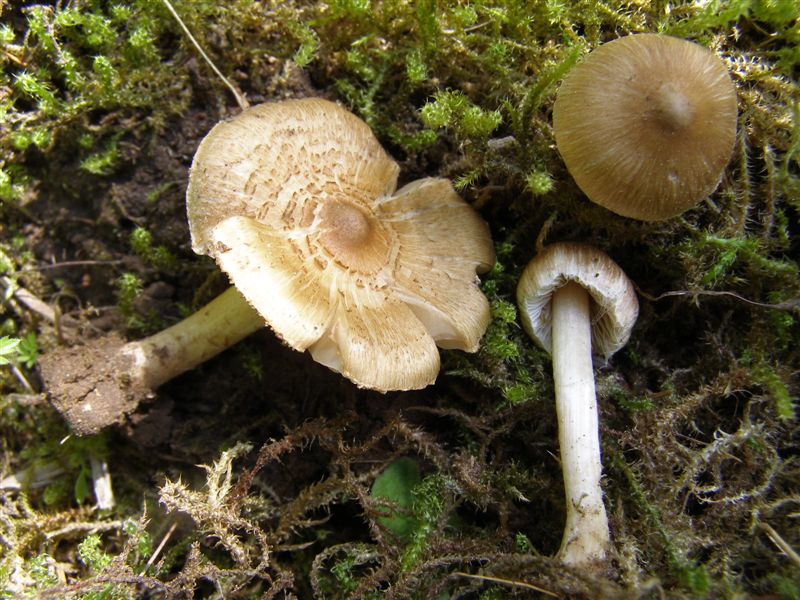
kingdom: Fungi
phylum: Basidiomycota
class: Agaricomycetes
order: Agaricales
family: Inocybaceae
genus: Inocybe
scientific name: Inocybe
